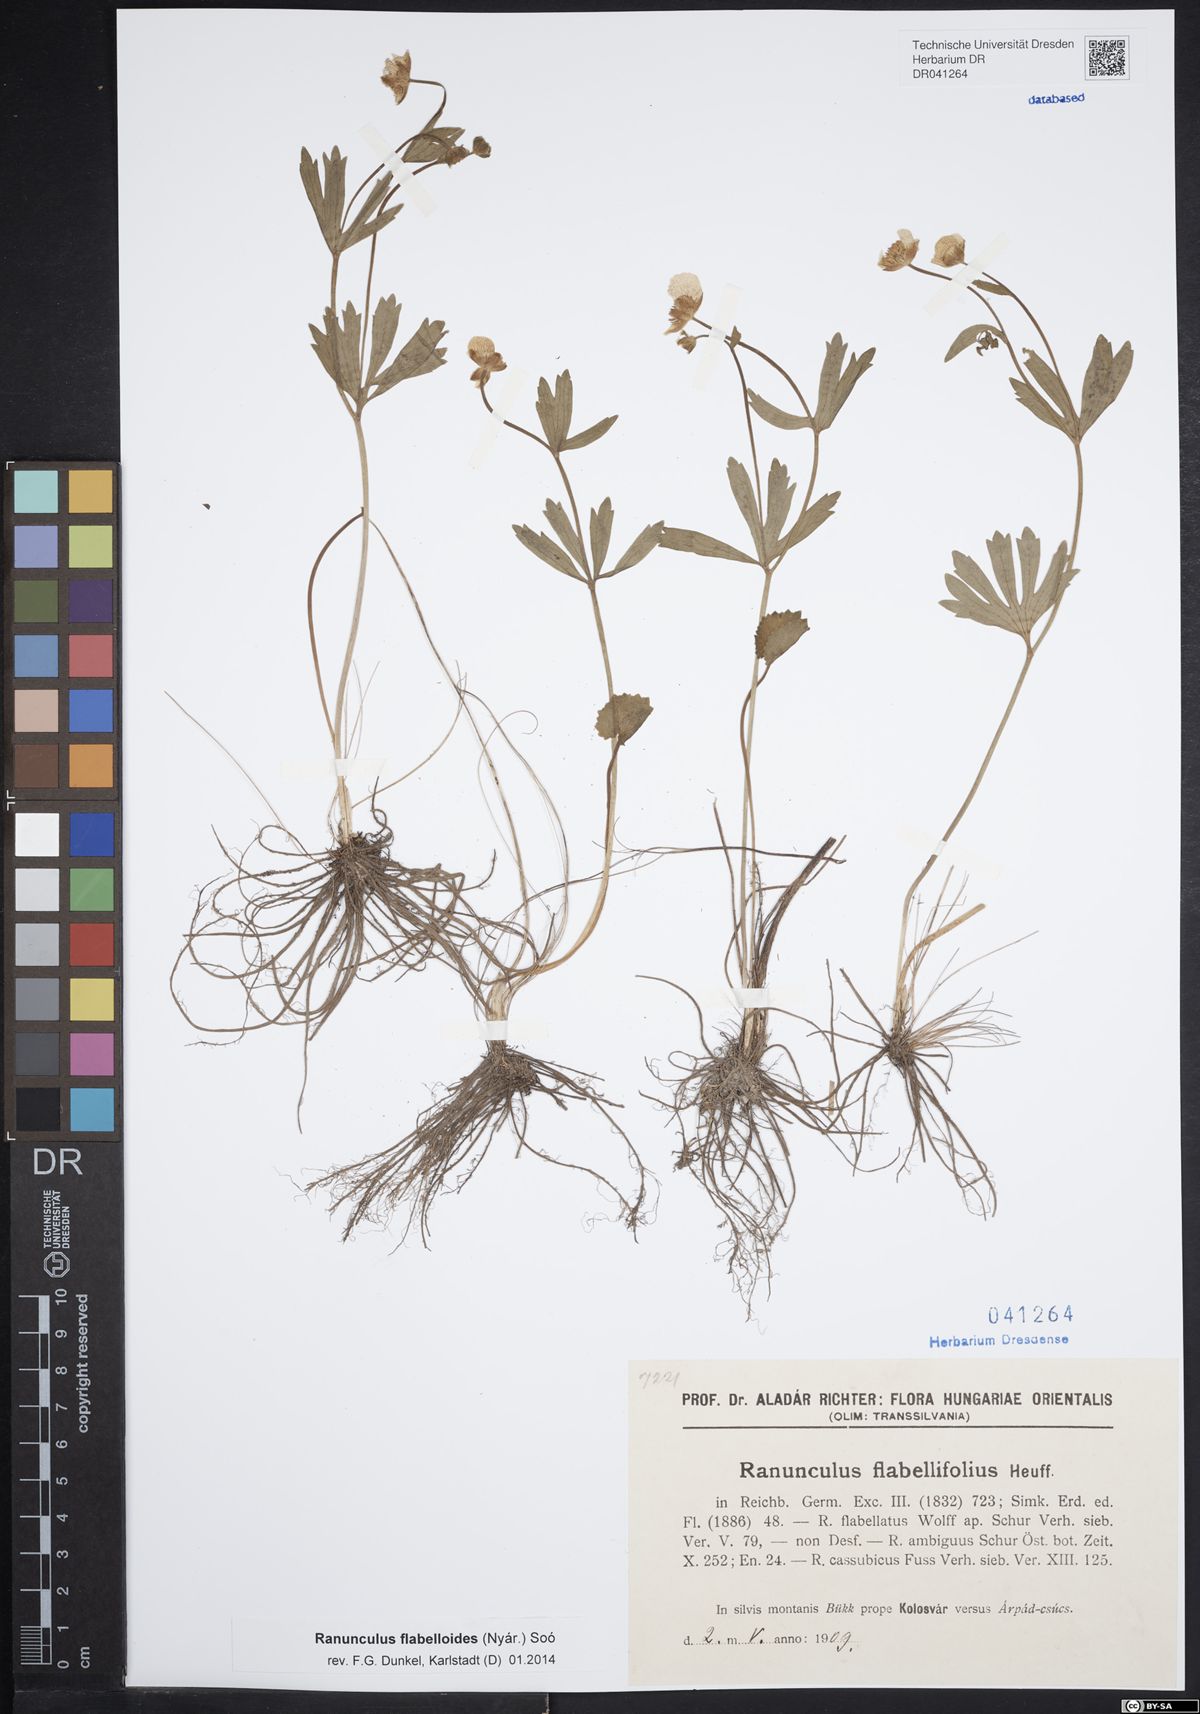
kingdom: Plantae
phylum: Tracheophyta
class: Magnoliopsida
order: Ranunculales
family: Ranunculaceae
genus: Ranunculus
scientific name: Ranunculus flabellifolius
